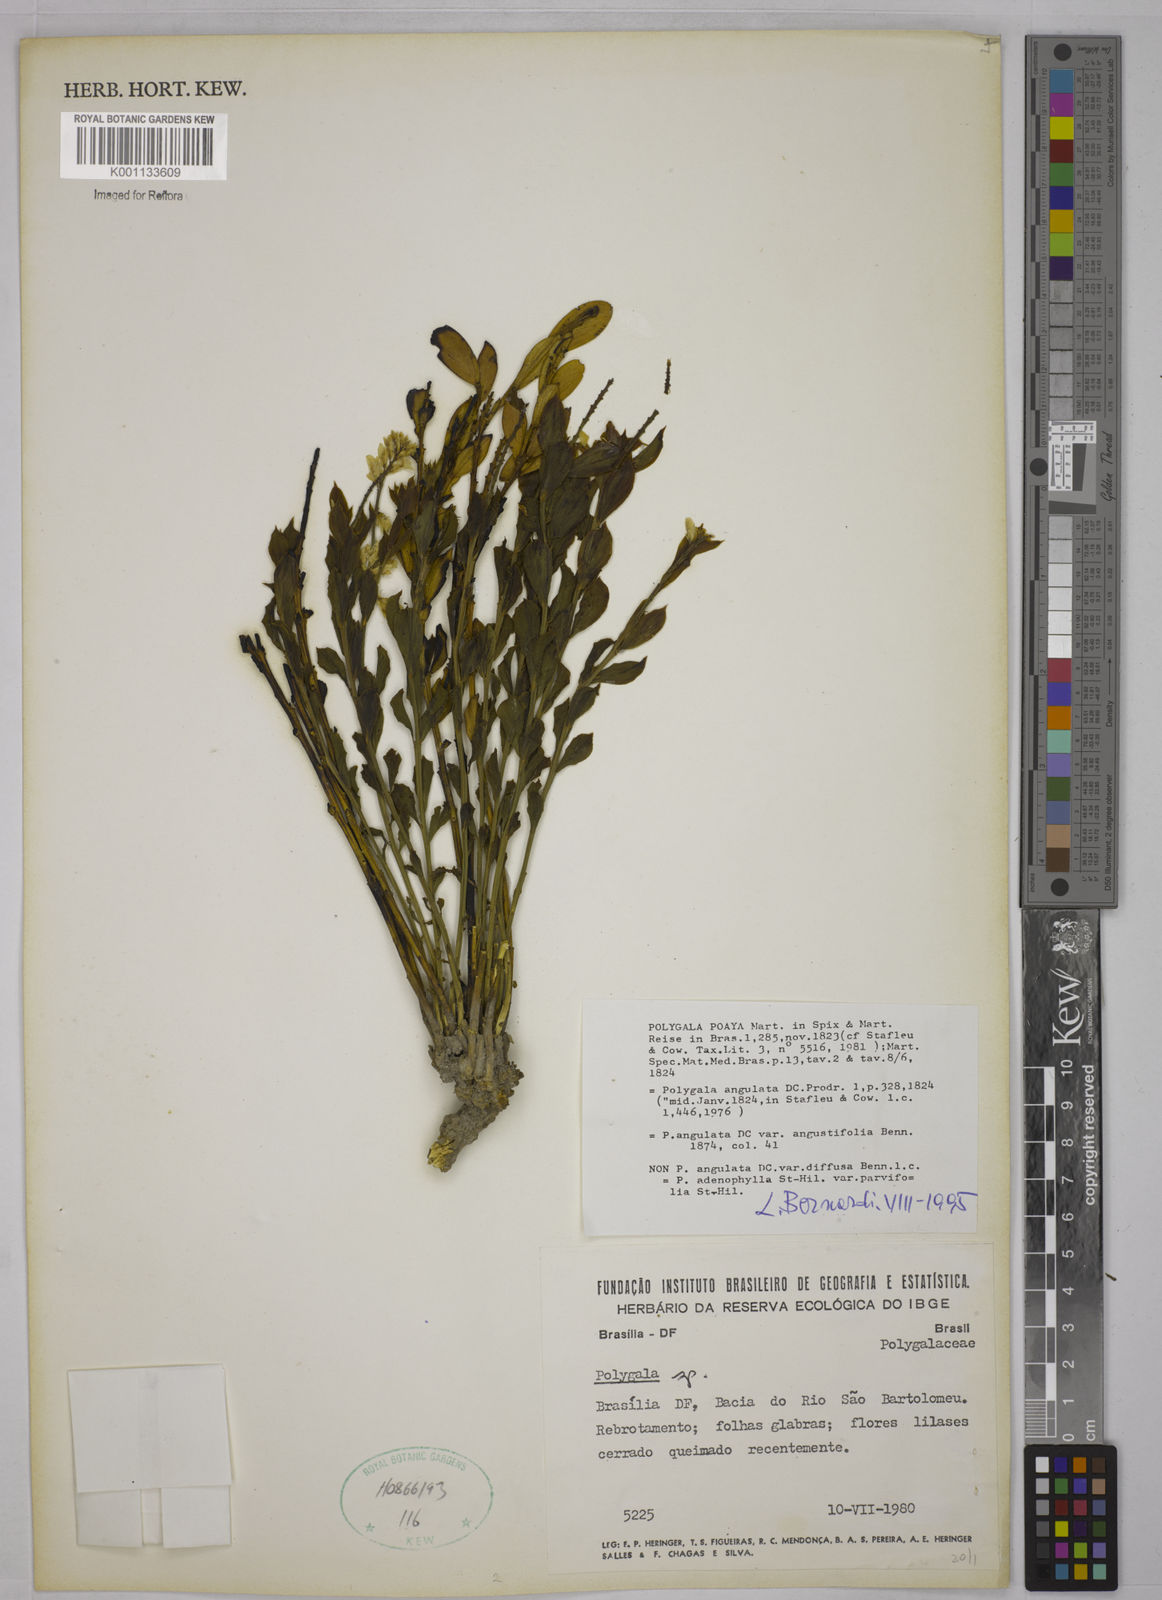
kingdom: Plantae
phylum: Tracheophyta
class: Magnoliopsida
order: Fabales
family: Polygalaceae
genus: Polygala
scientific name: Polygala poaya
